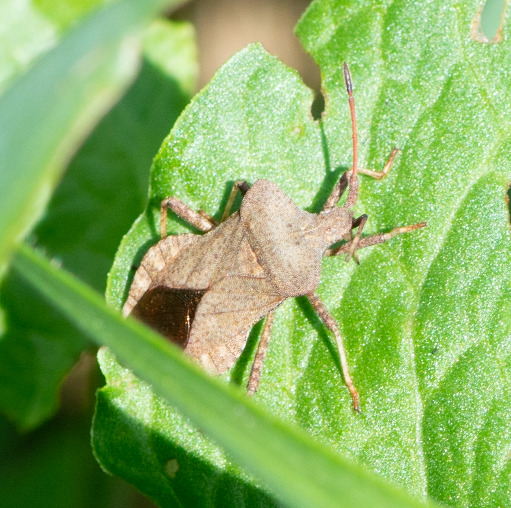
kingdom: Animalia
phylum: Arthropoda
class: Insecta
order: Hemiptera
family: Coreidae
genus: Coreus
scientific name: Coreus marginatus
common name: Skræppetæge
